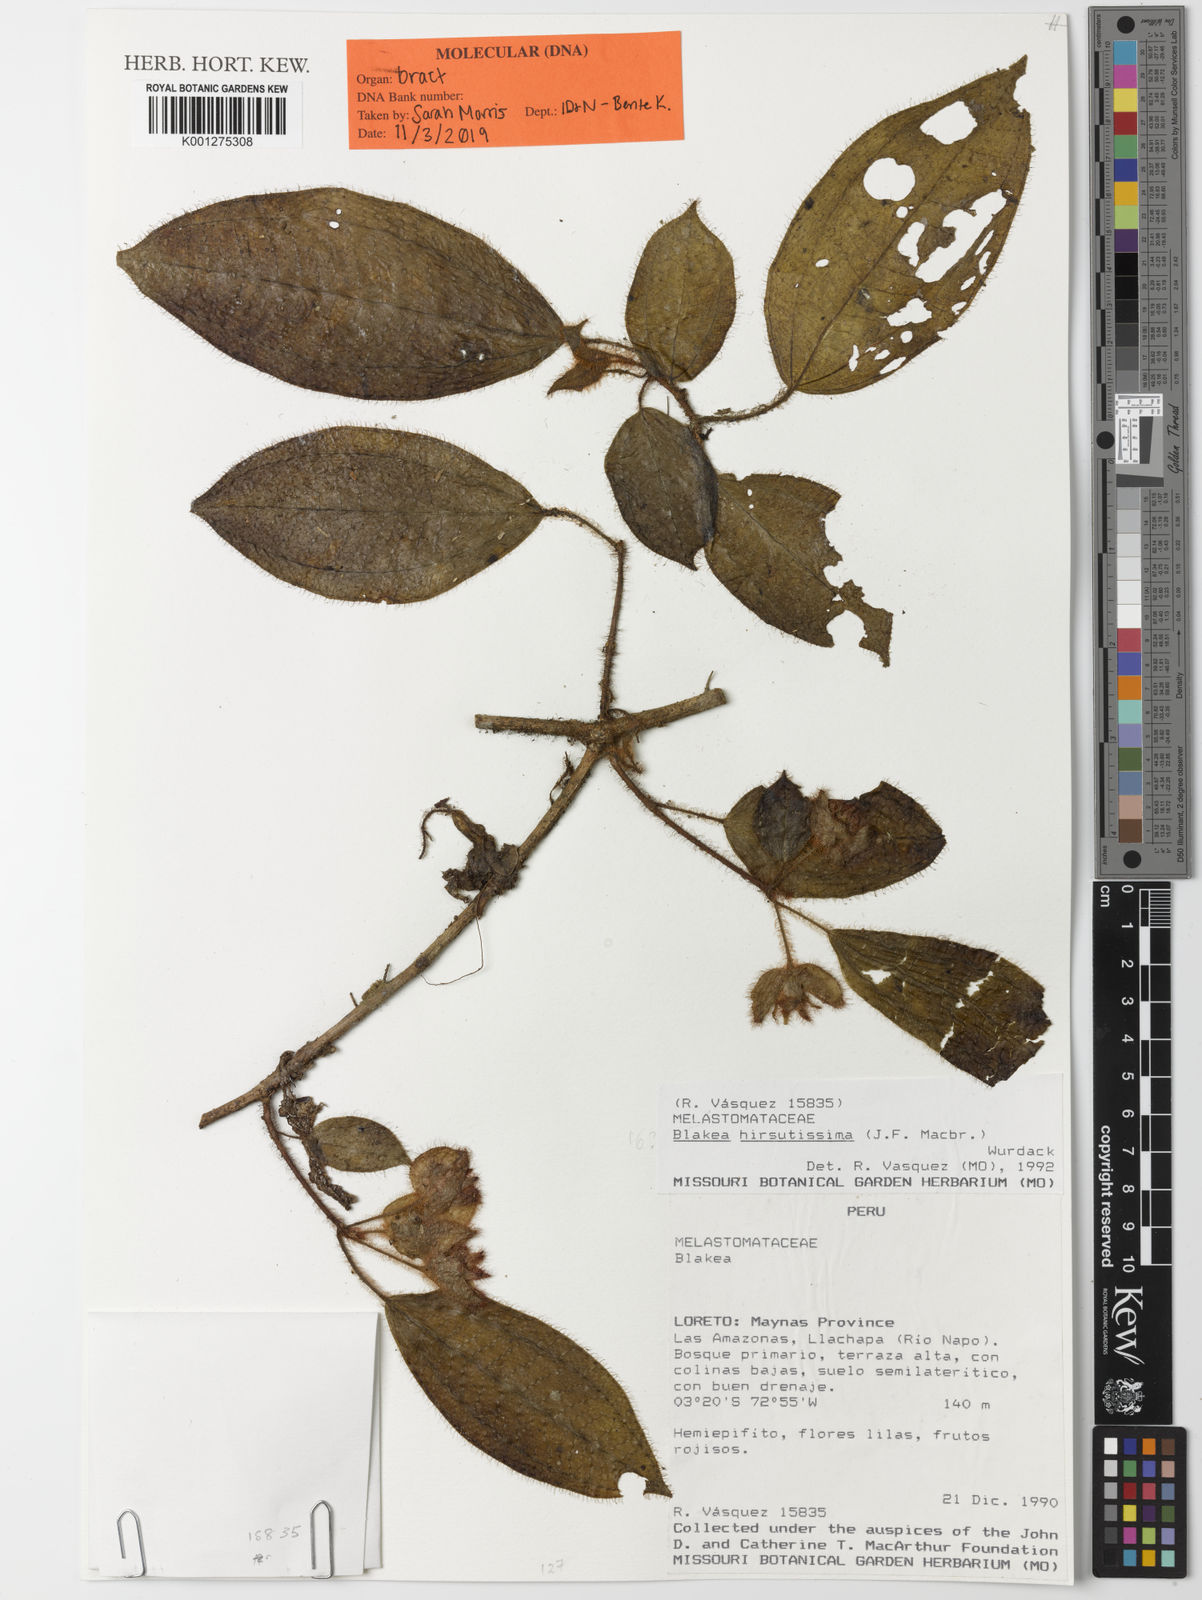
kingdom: Plantae
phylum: Tracheophyta
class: Magnoliopsida
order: Myrtales
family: Melastomataceae
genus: Blakea
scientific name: Blakea hirsutissima
